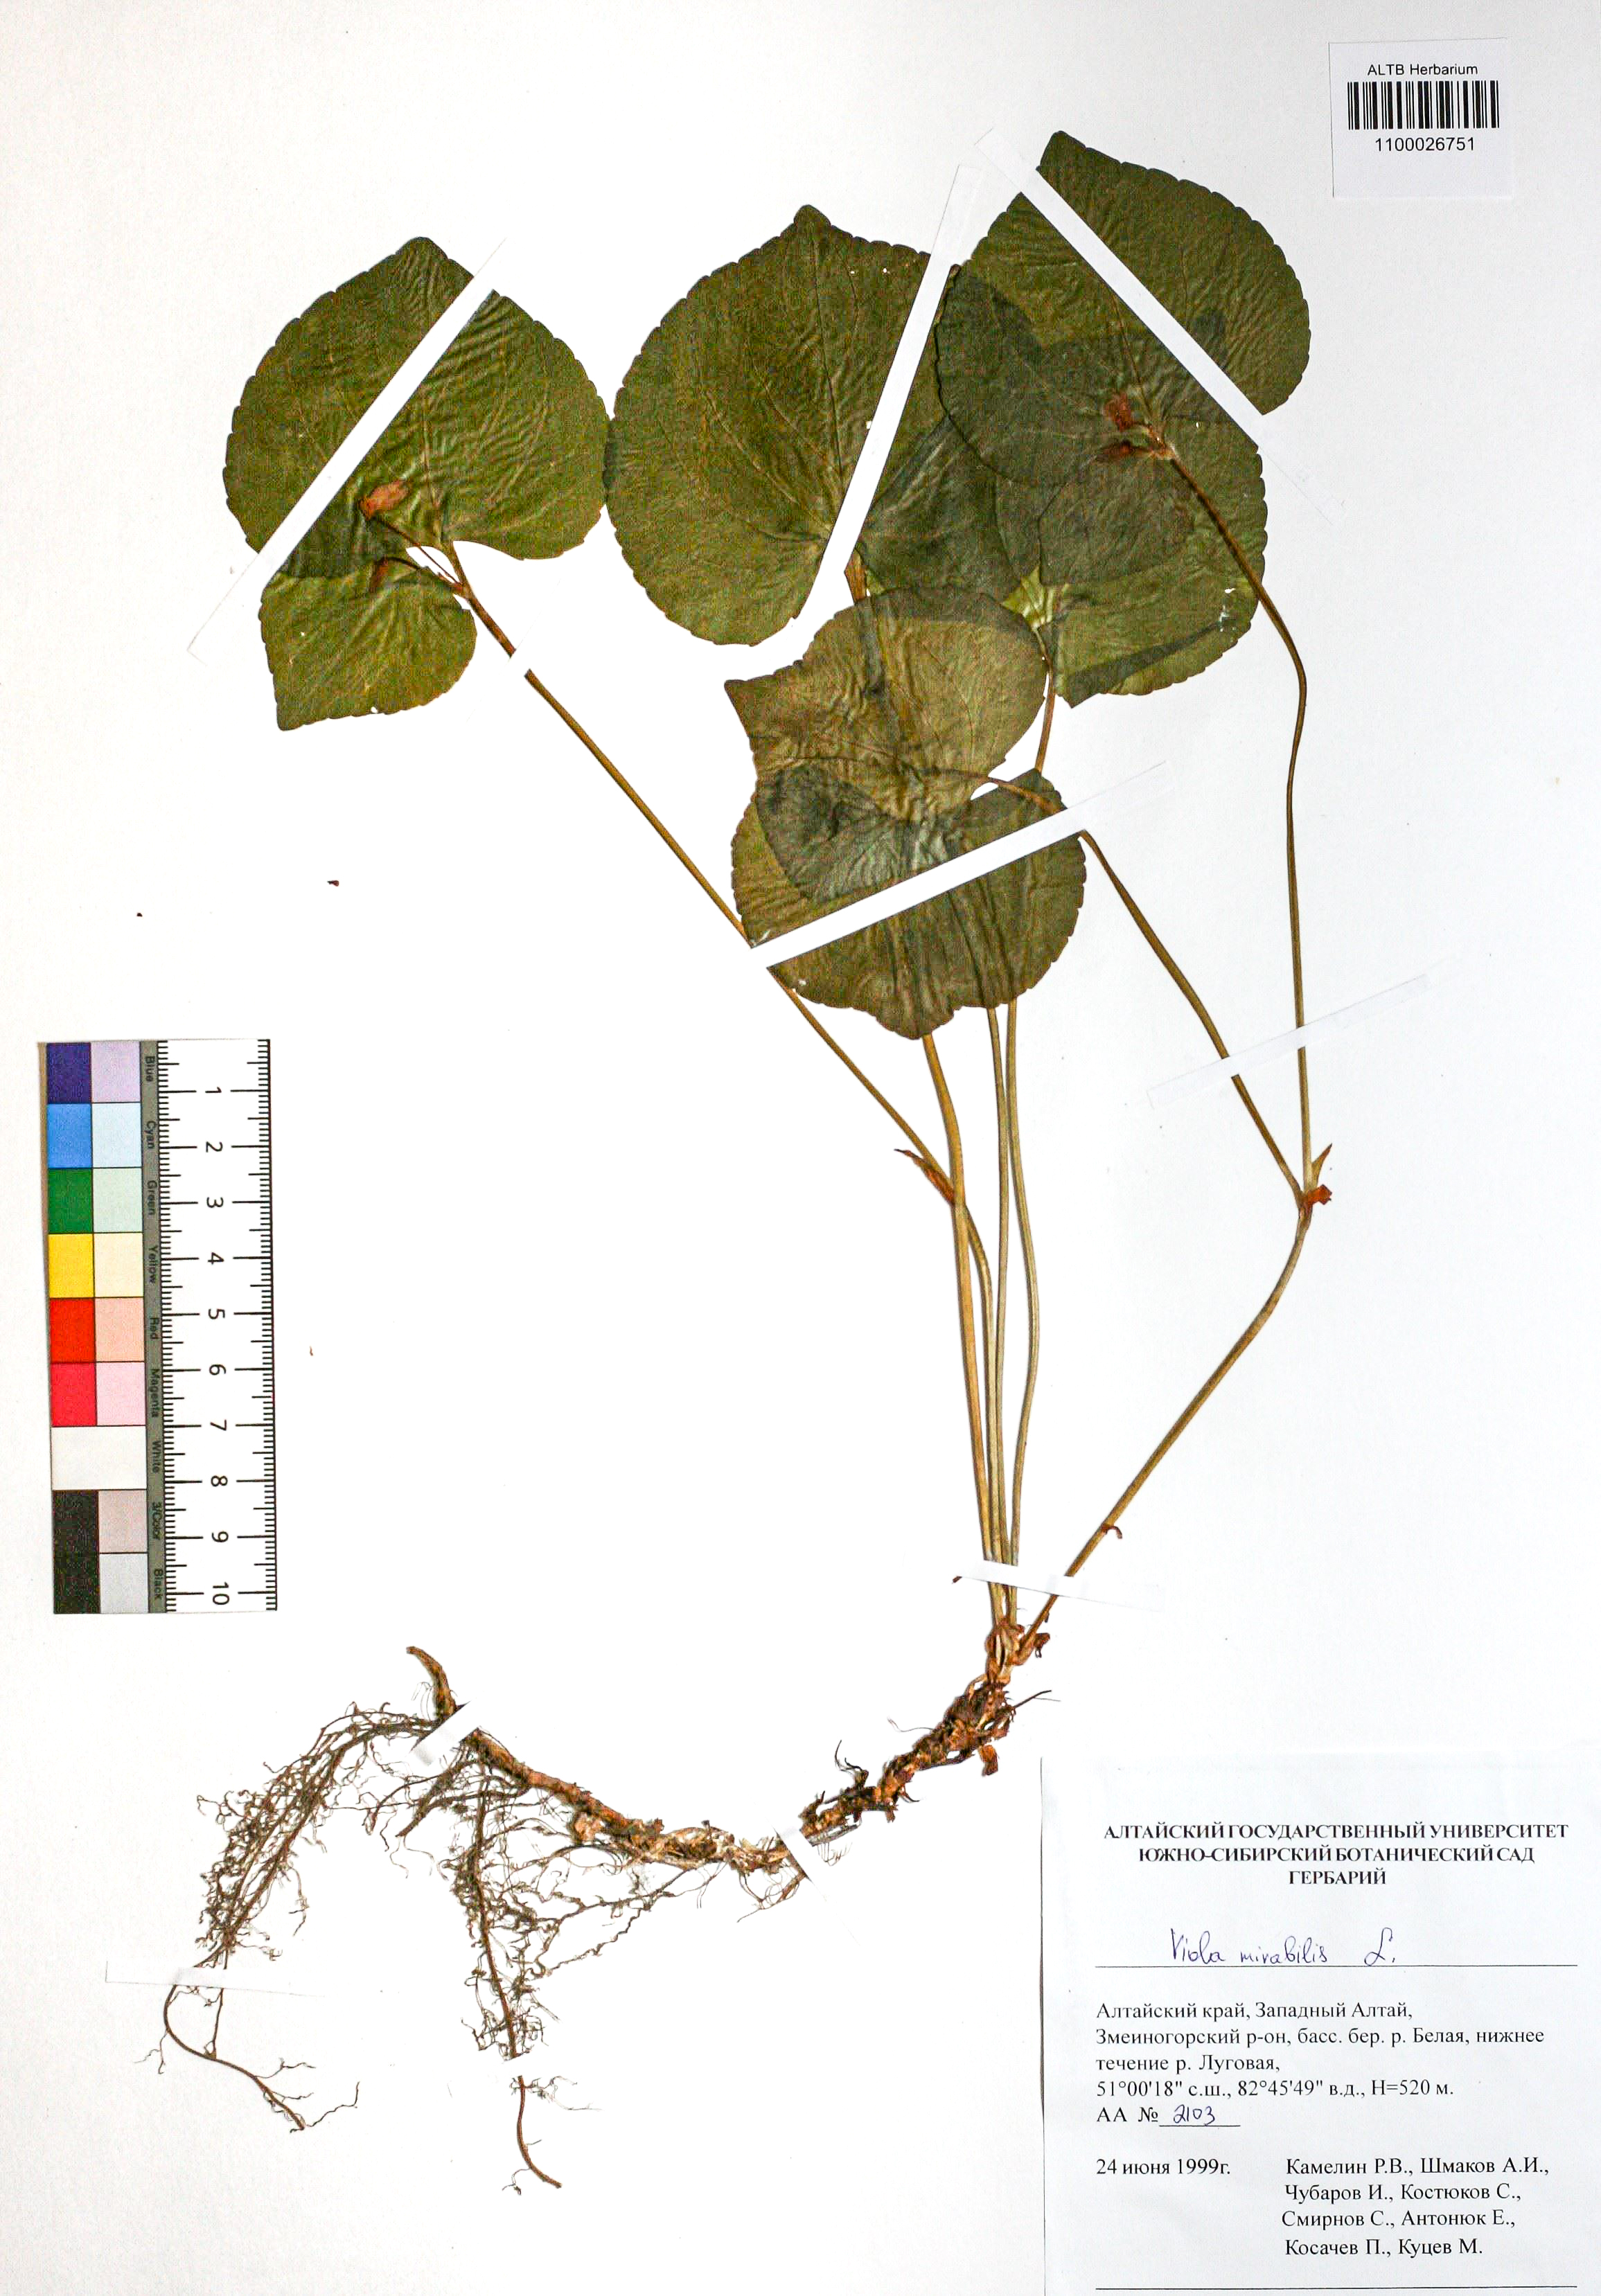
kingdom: Plantae
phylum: Tracheophyta
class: Magnoliopsida
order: Malpighiales
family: Violaceae
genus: Viola
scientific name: Viola mirabilis
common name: Wonder violet
